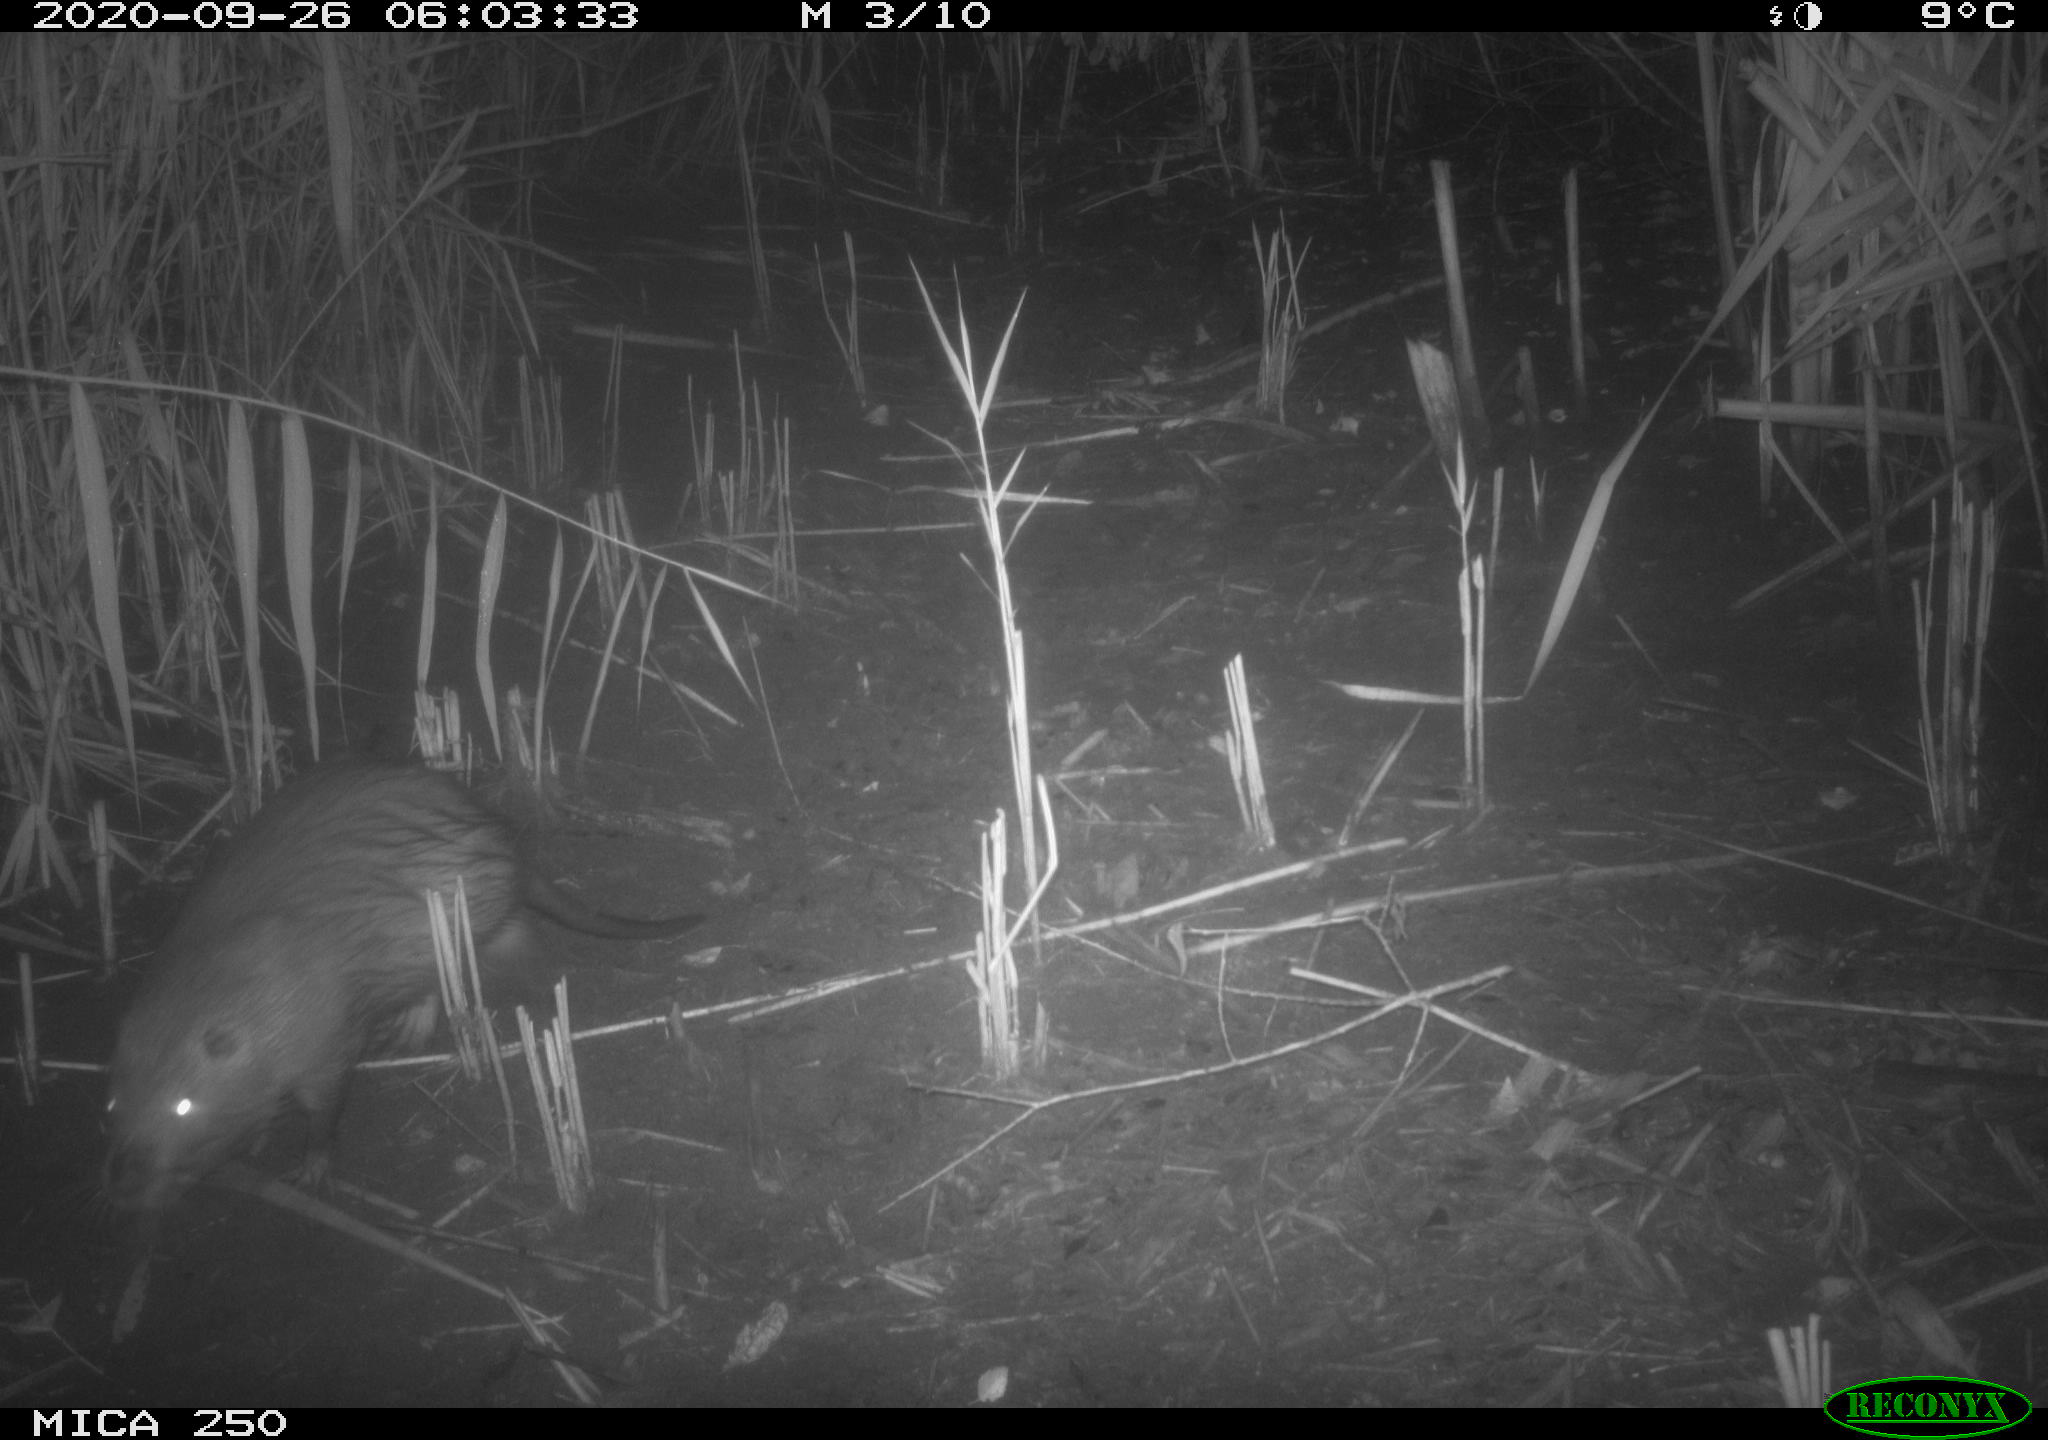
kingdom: Animalia
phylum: Chordata
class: Mammalia
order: Rodentia
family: Myocastoridae
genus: Myocastor
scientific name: Myocastor coypus
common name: Coypu
